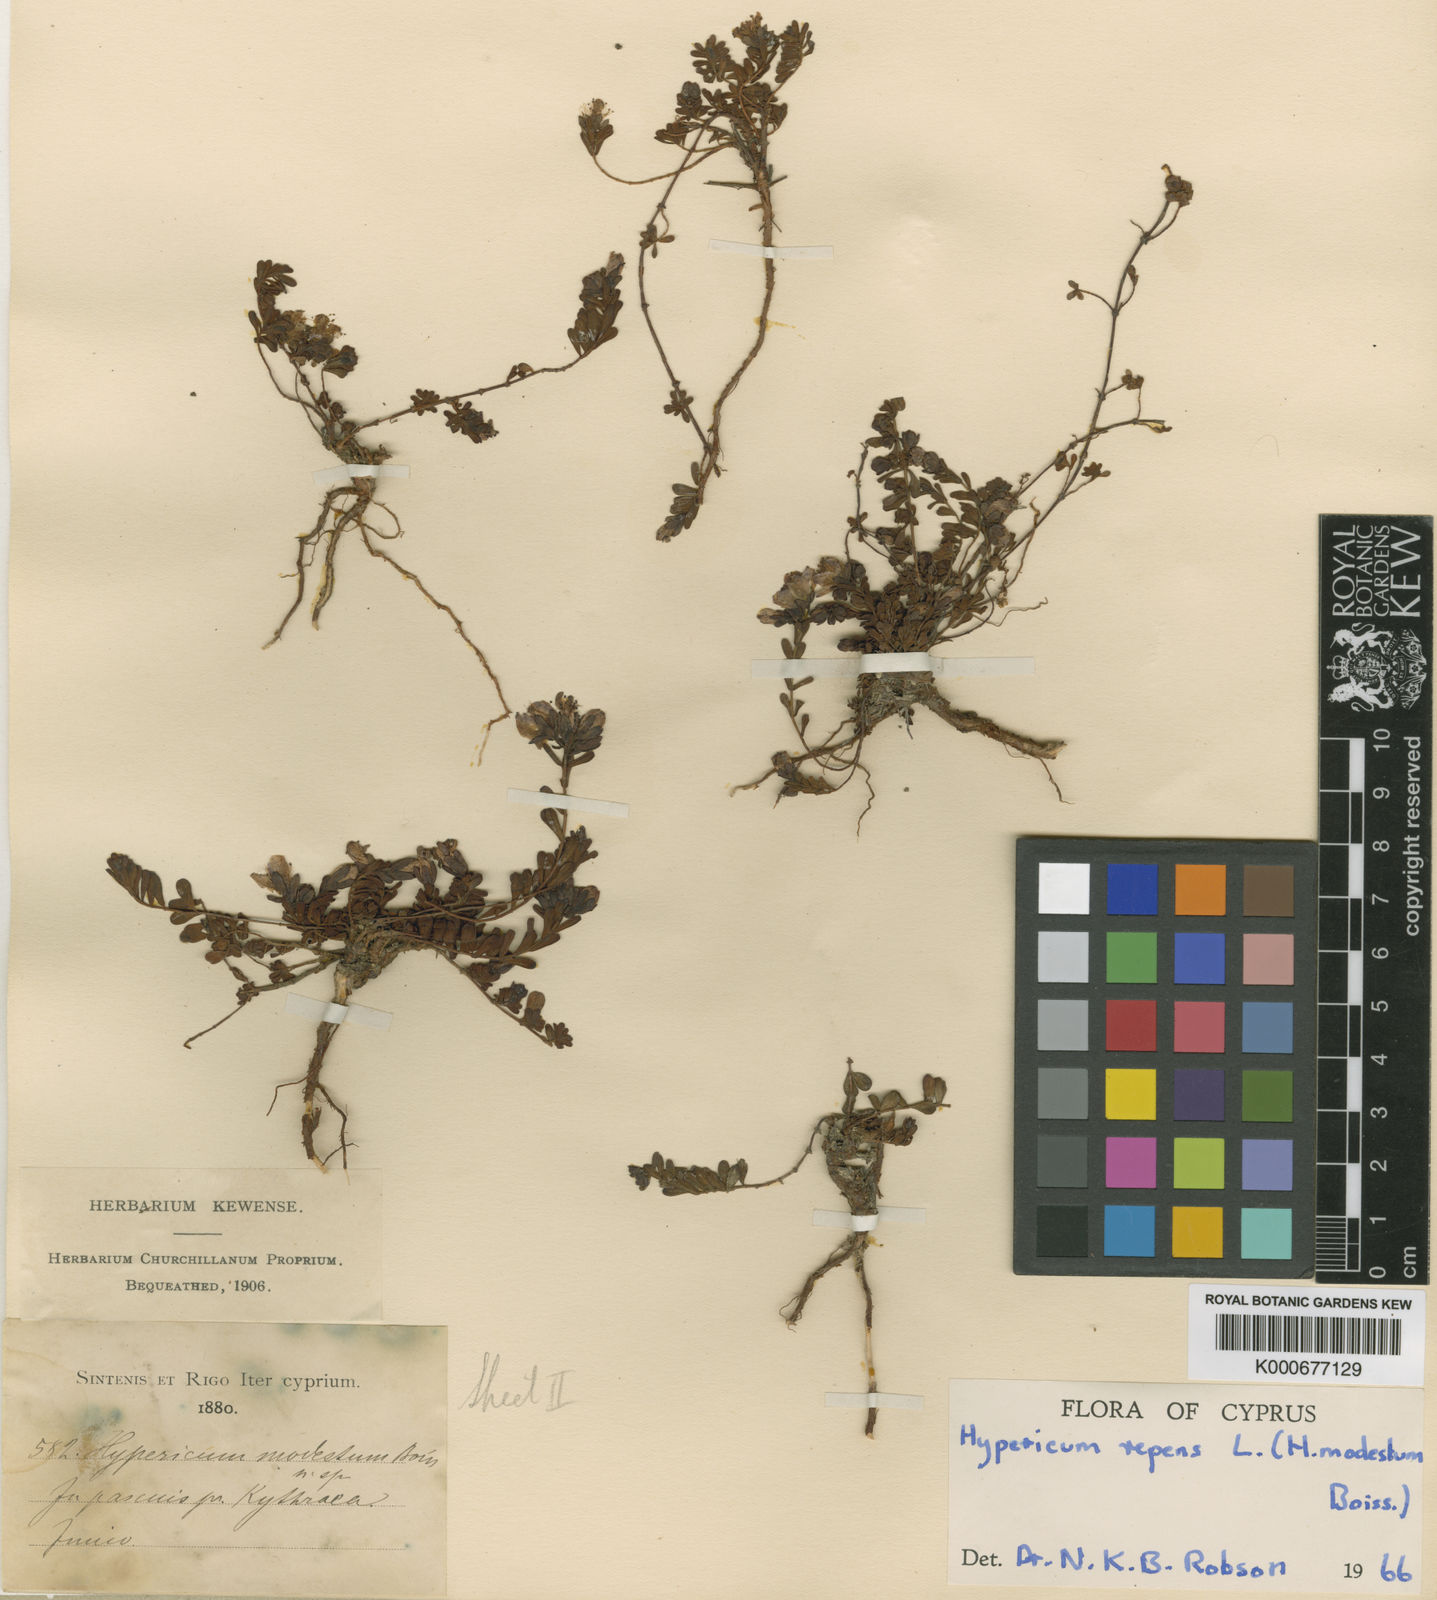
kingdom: Plantae
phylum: Tracheophyta
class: Magnoliopsida
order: Malpighiales
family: Hypericaceae
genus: Hypericum
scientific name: Hypericum repens
